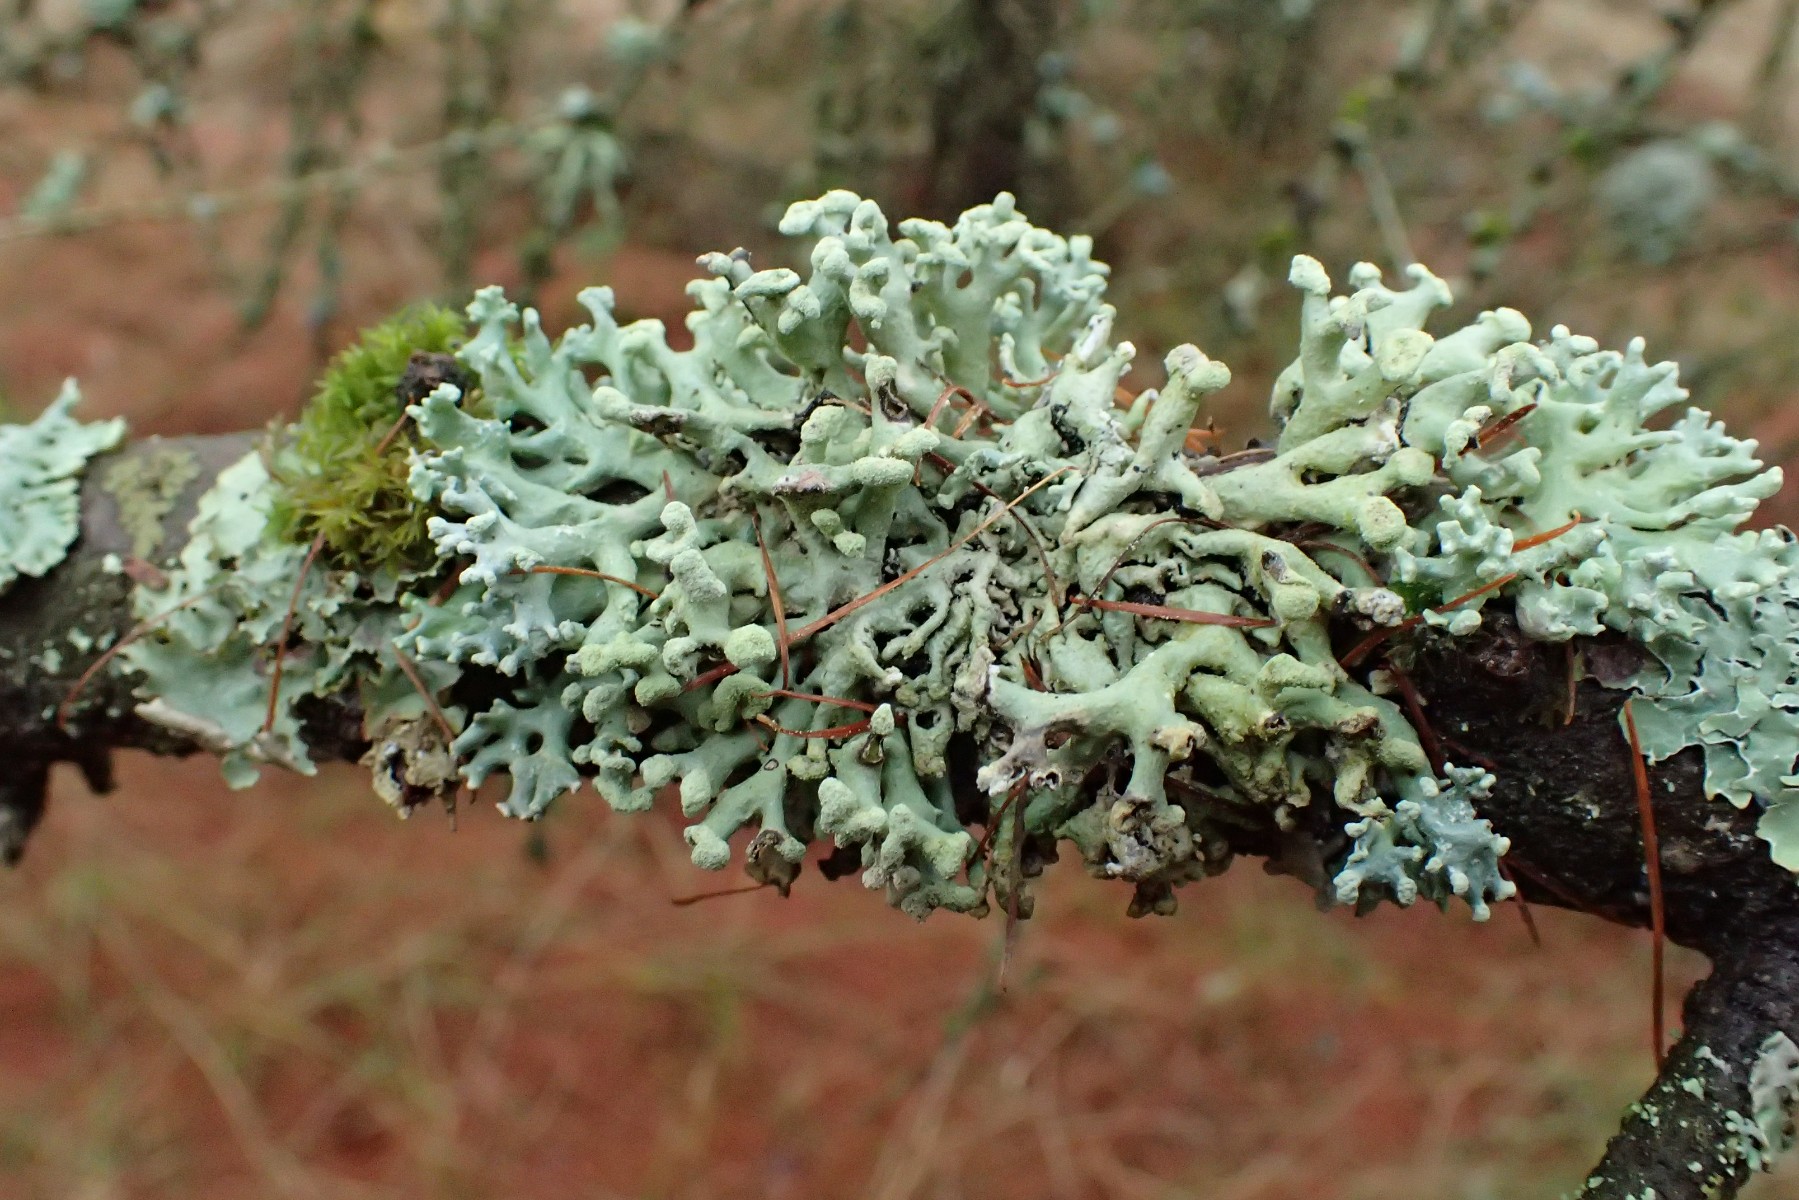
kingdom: Fungi
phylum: Ascomycota
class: Lecanoromycetes
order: Lecanorales
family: Parmeliaceae
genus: Hypogymnia
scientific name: Hypogymnia tubulosa
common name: finger-kvistlav
